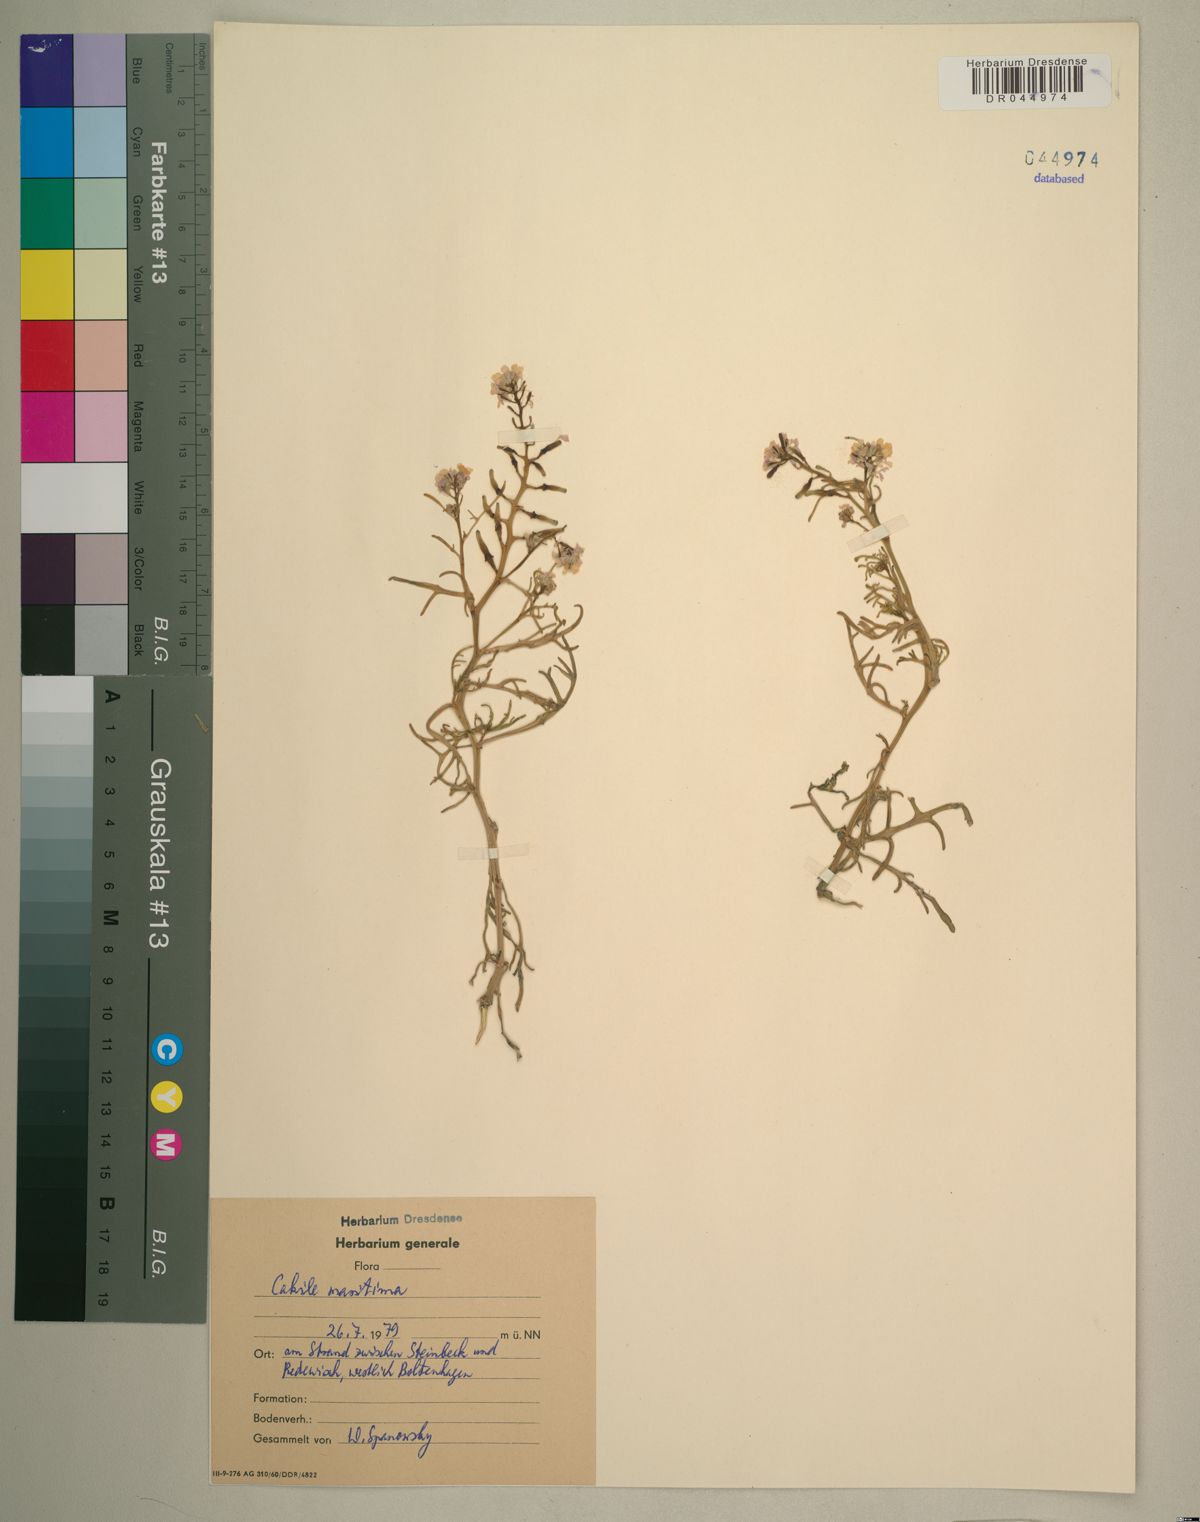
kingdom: Plantae
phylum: Tracheophyta
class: Magnoliopsida
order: Brassicales
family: Brassicaceae
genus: Cakile
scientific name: Cakile maritima
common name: Sea rocket
